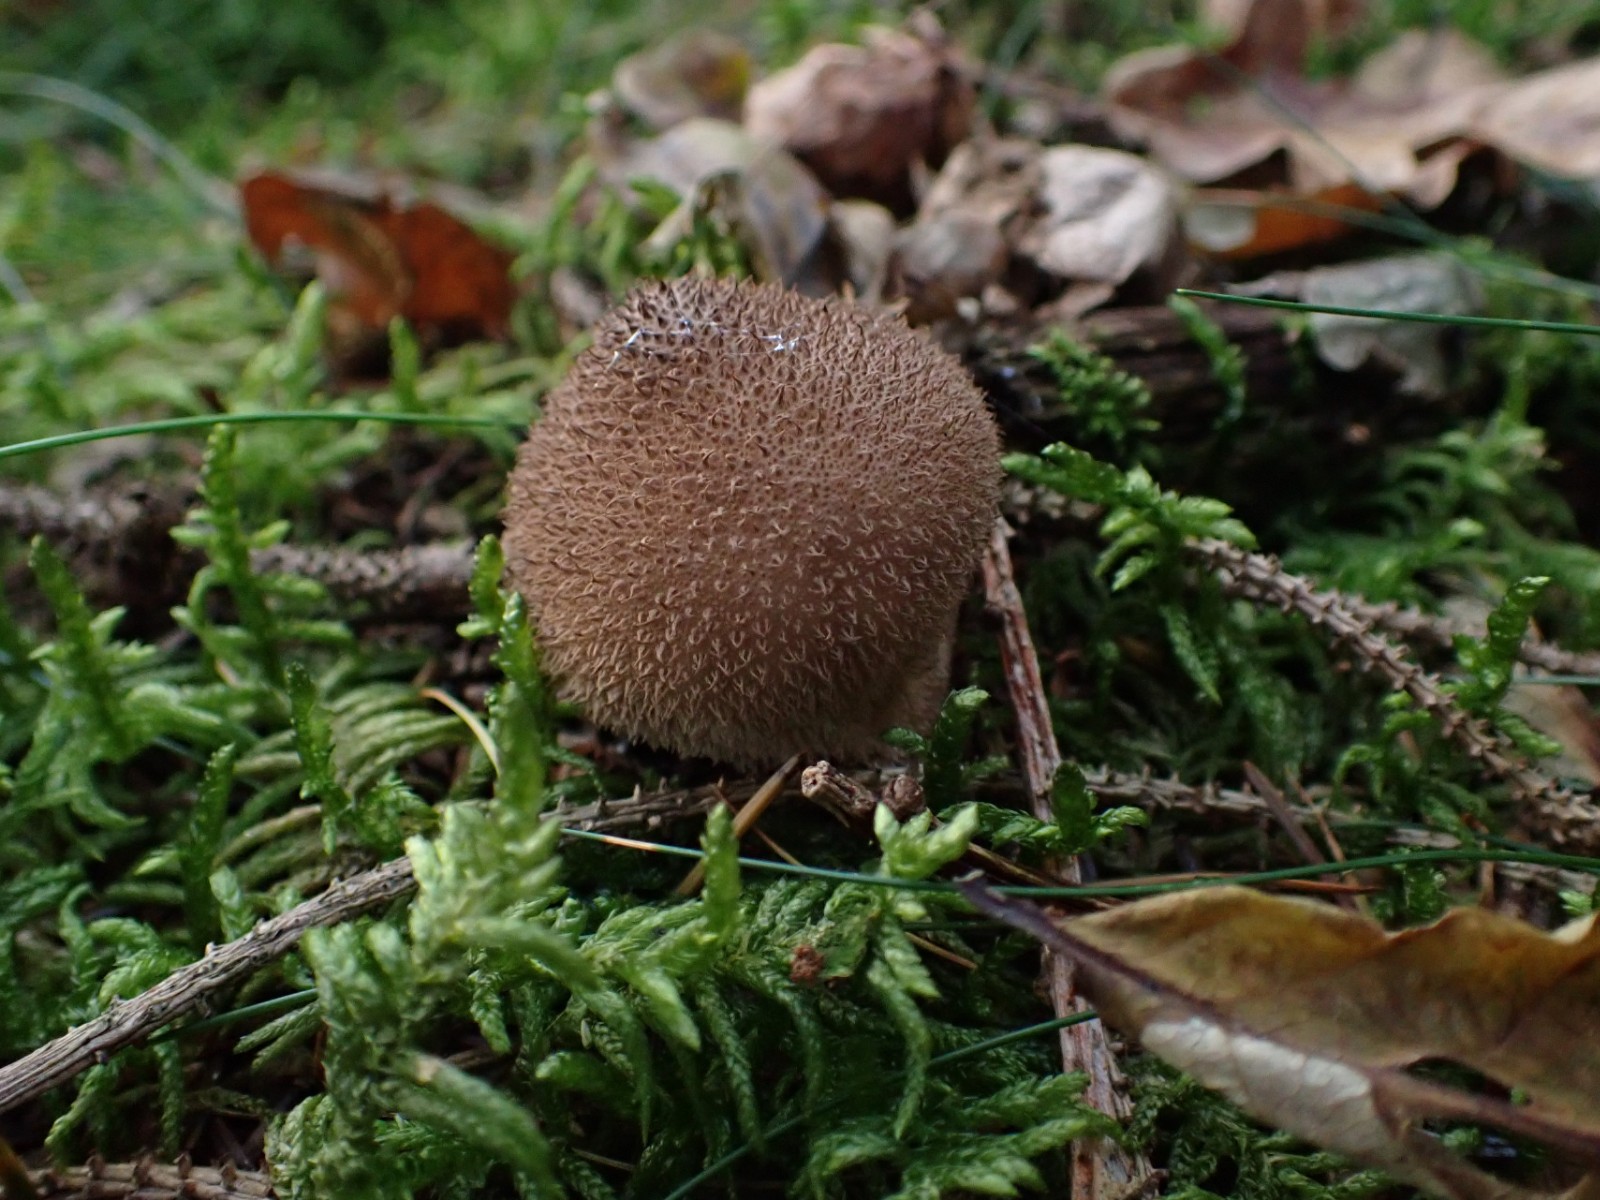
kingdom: Fungi
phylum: Basidiomycota
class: Agaricomycetes
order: Agaricales
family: Lycoperdaceae
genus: Lycoperdon
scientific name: Lycoperdon nigrescens
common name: sortagtig støvbold
